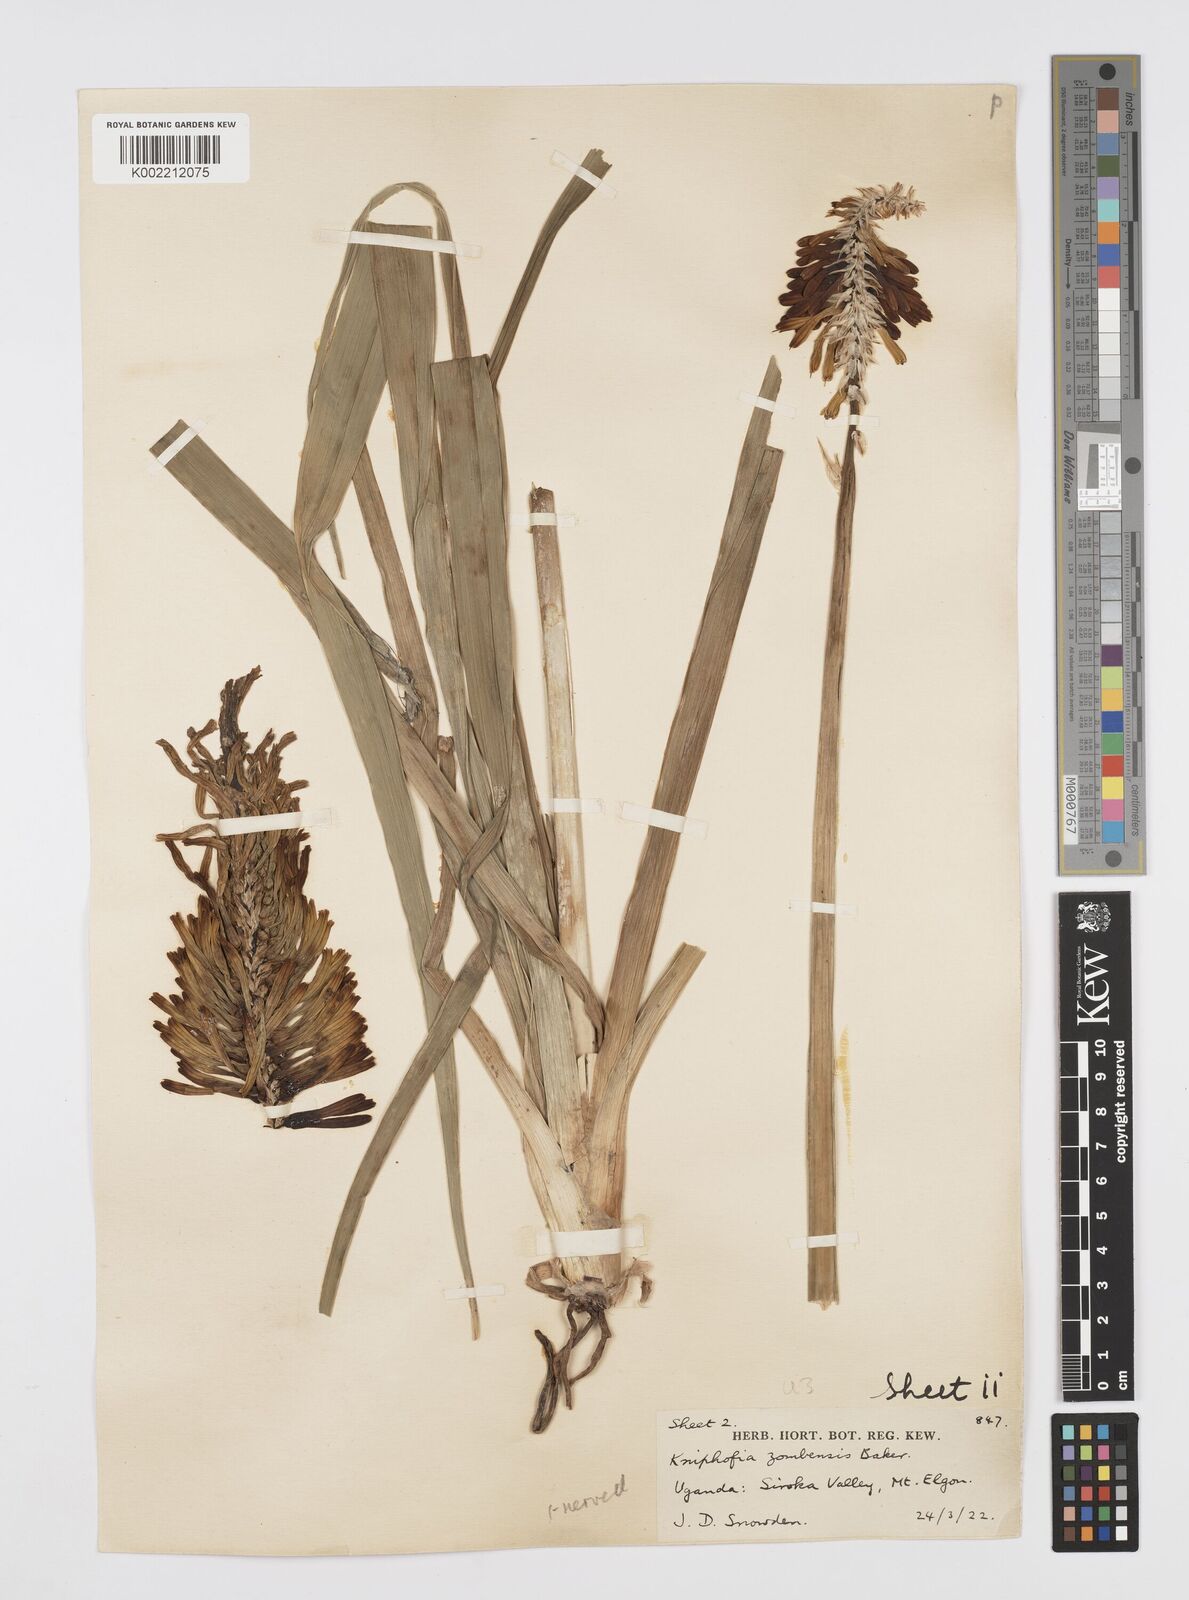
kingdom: Plantae
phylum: Tracheophyta
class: Liliopsida
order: Asparagales
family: Asphodelaceae
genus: Kniphofia
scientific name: Kniphofia grantii
